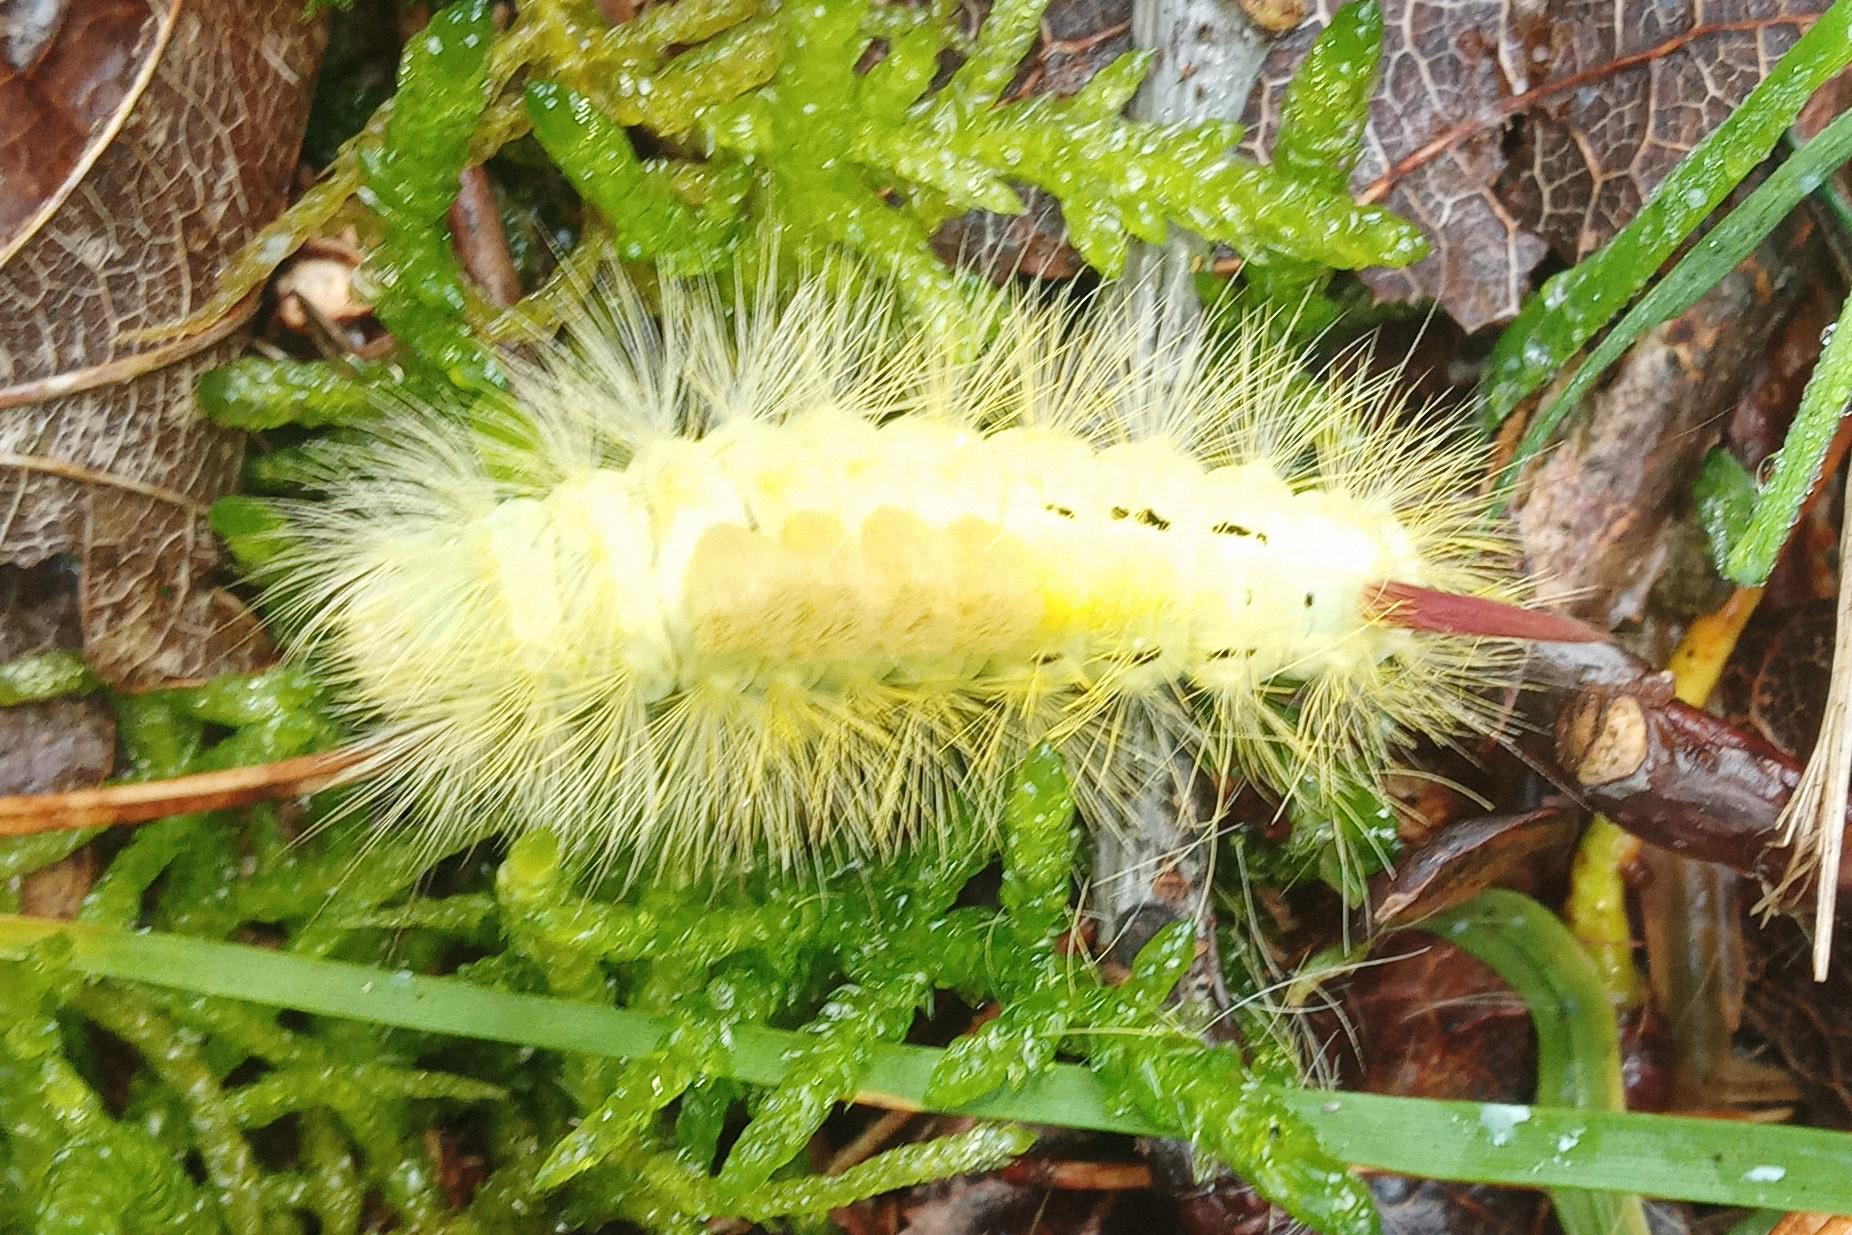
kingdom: Animalia
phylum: Arthropoda
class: Insecta
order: Lepidoptera
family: Erebidae
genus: Calliteara
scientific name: Calliteara pudibunda
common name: Bøgenonne
